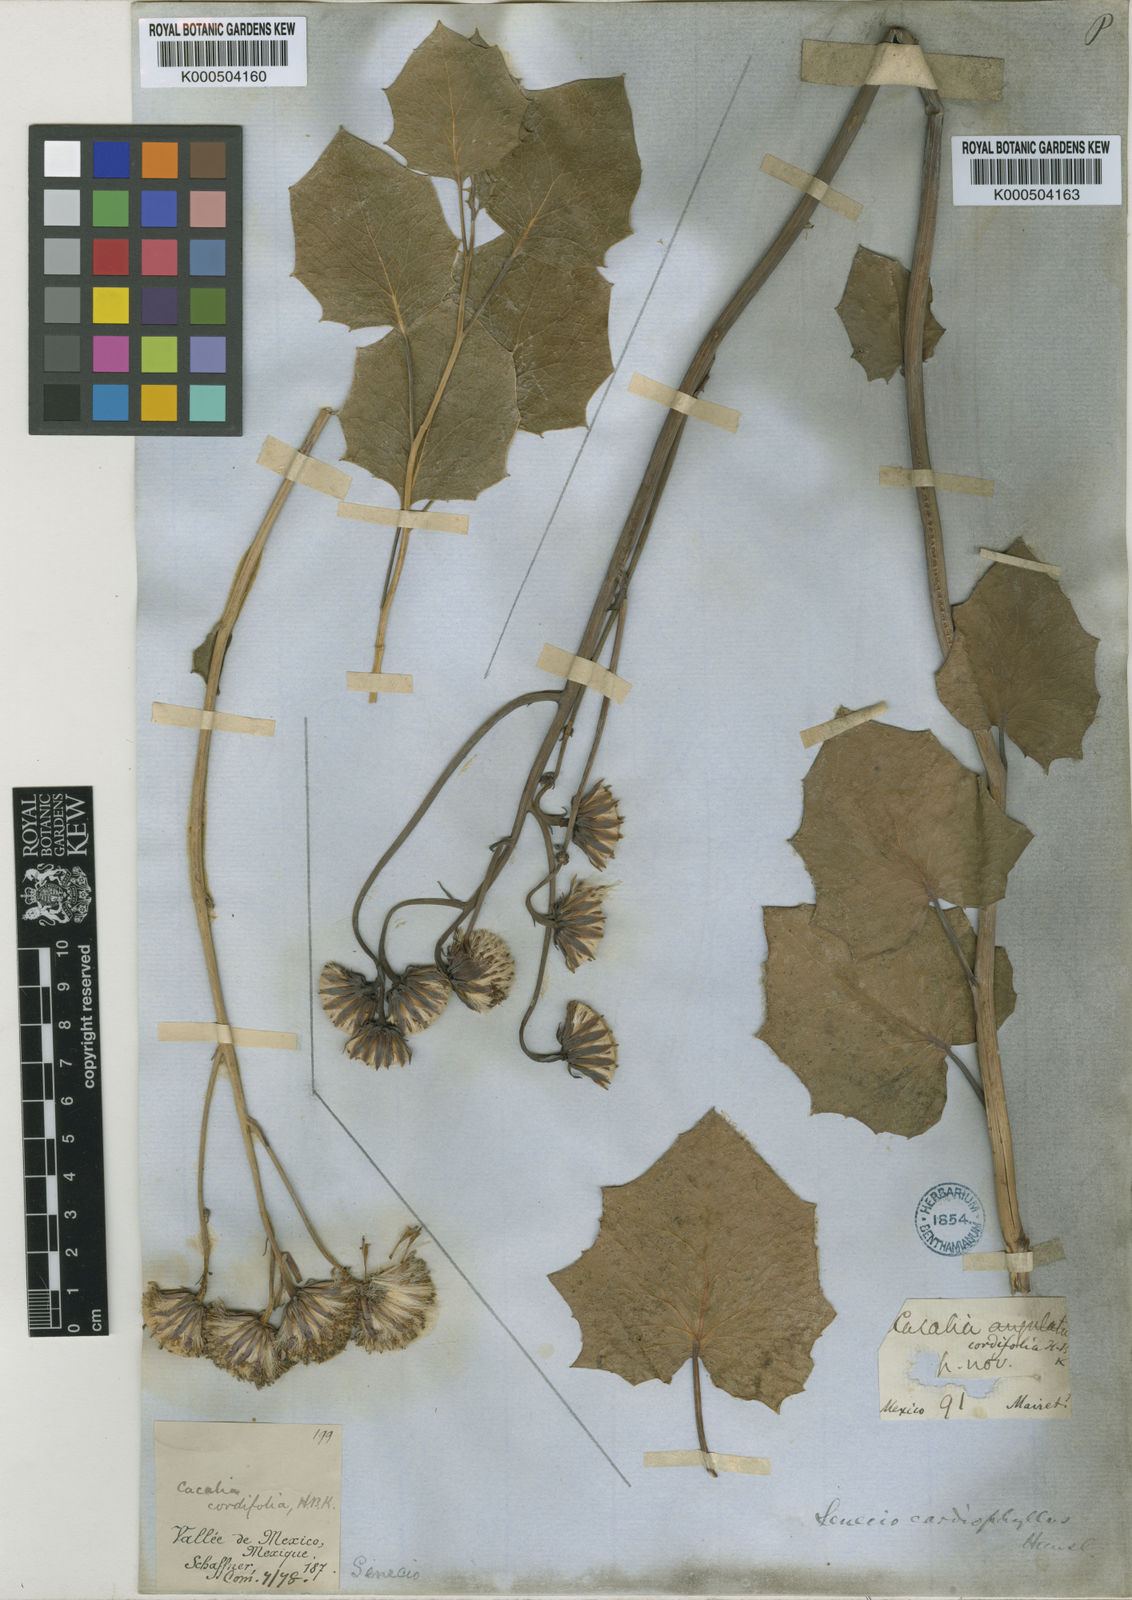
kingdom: Plantae
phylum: Tracheophyta
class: Magnoliopsida
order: Asterales
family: Asteraceae
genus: Roldana
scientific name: Roldana
